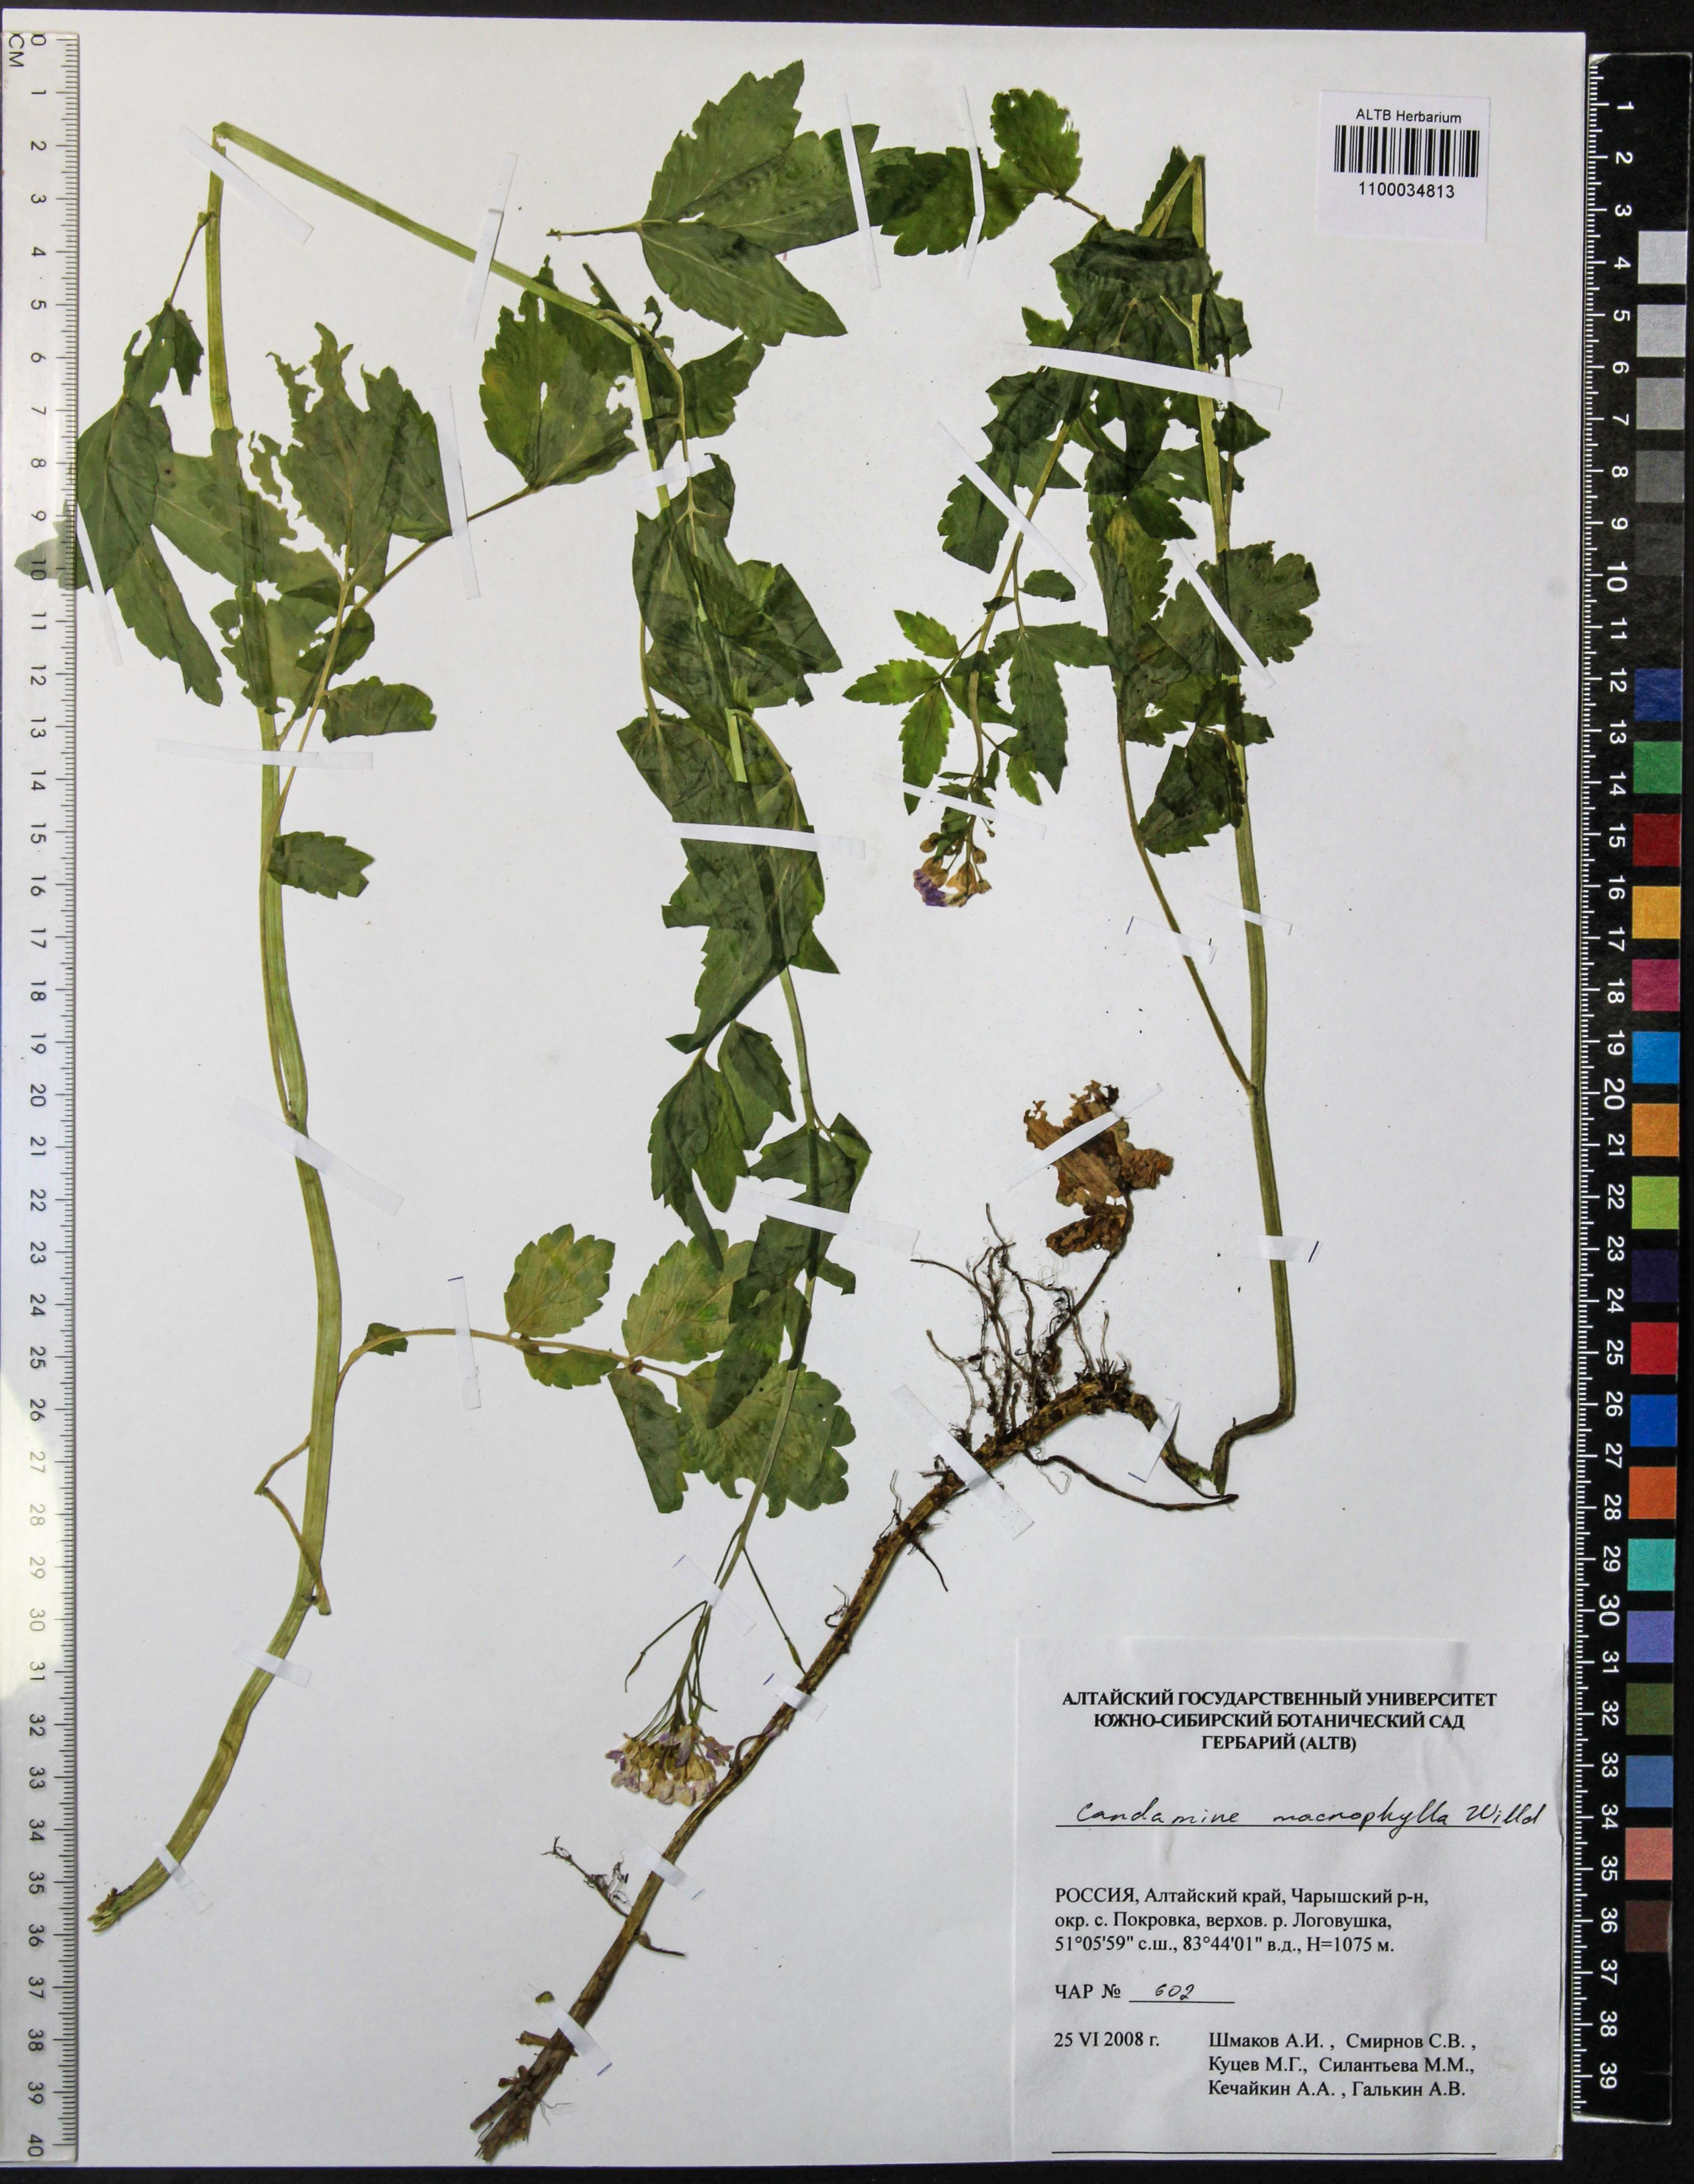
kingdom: Plantae
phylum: Tracheophyta
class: Magnoliopsida
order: Brassicales
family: Brassicaceae
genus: Cardamine
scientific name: Cardamine macrophylla
